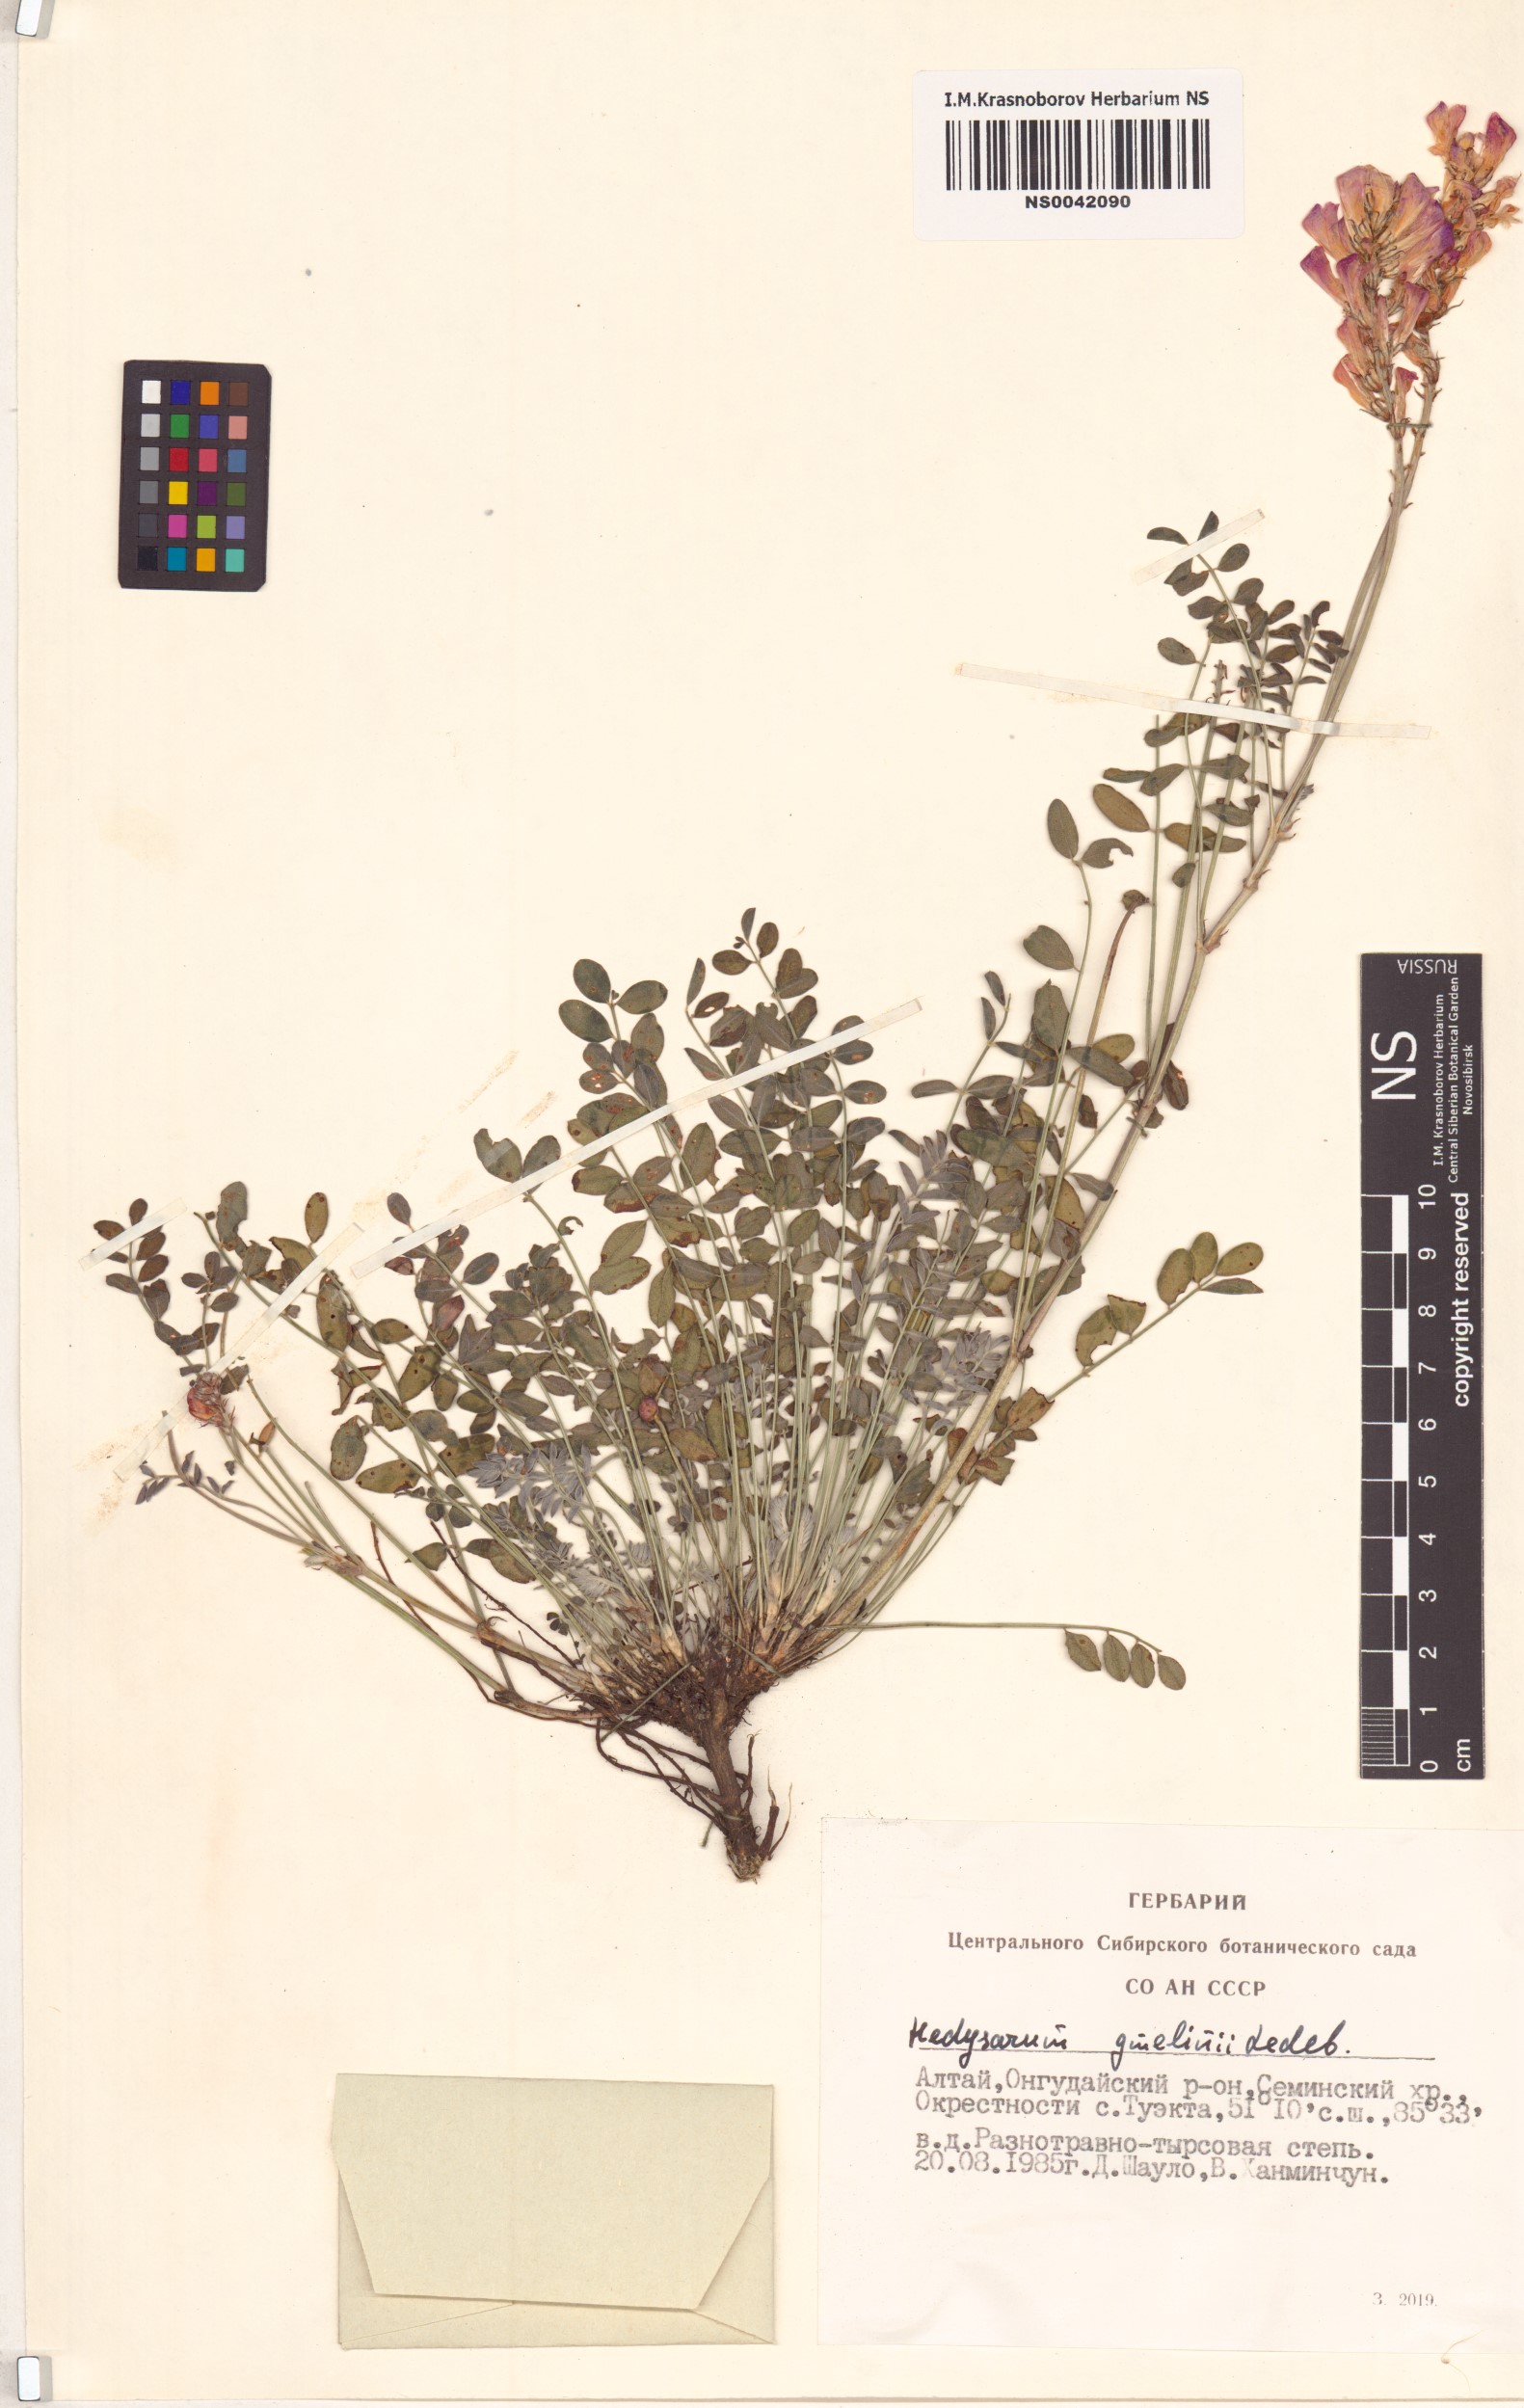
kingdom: Plantae
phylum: Tracheophyta
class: Magnoliopsida
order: Fabales
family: Fabaceae
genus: Hedysarum
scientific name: Hedysarum gmelinii
